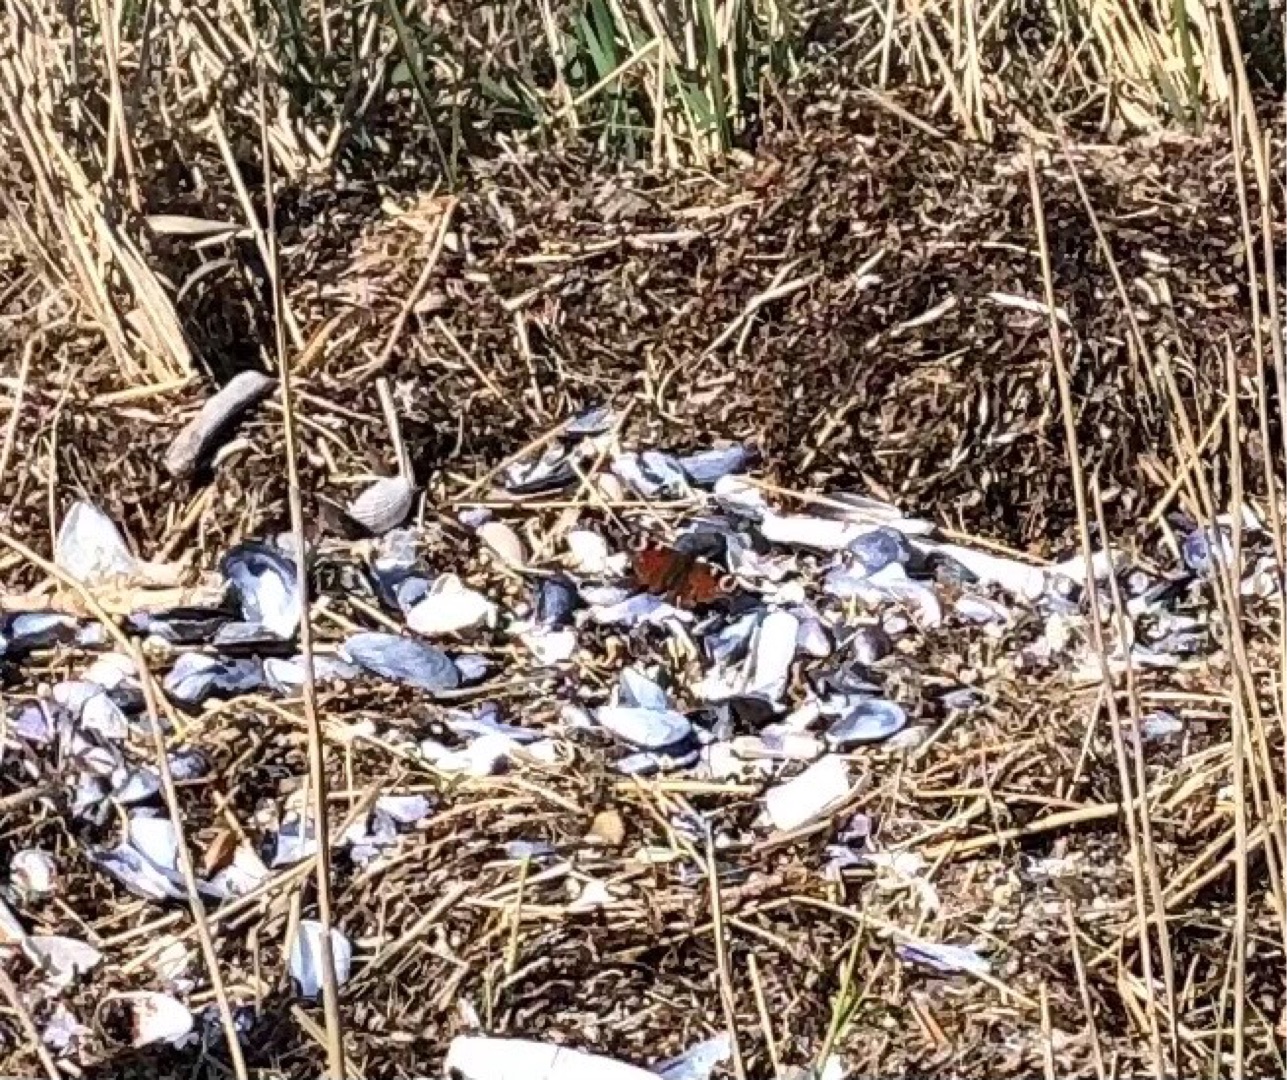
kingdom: Animalia
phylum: Arthropoda
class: Insecta
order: Lepidoptera
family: Nymphalidae
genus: Aglais
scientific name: Aglais io
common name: Dagpåfugleøje
